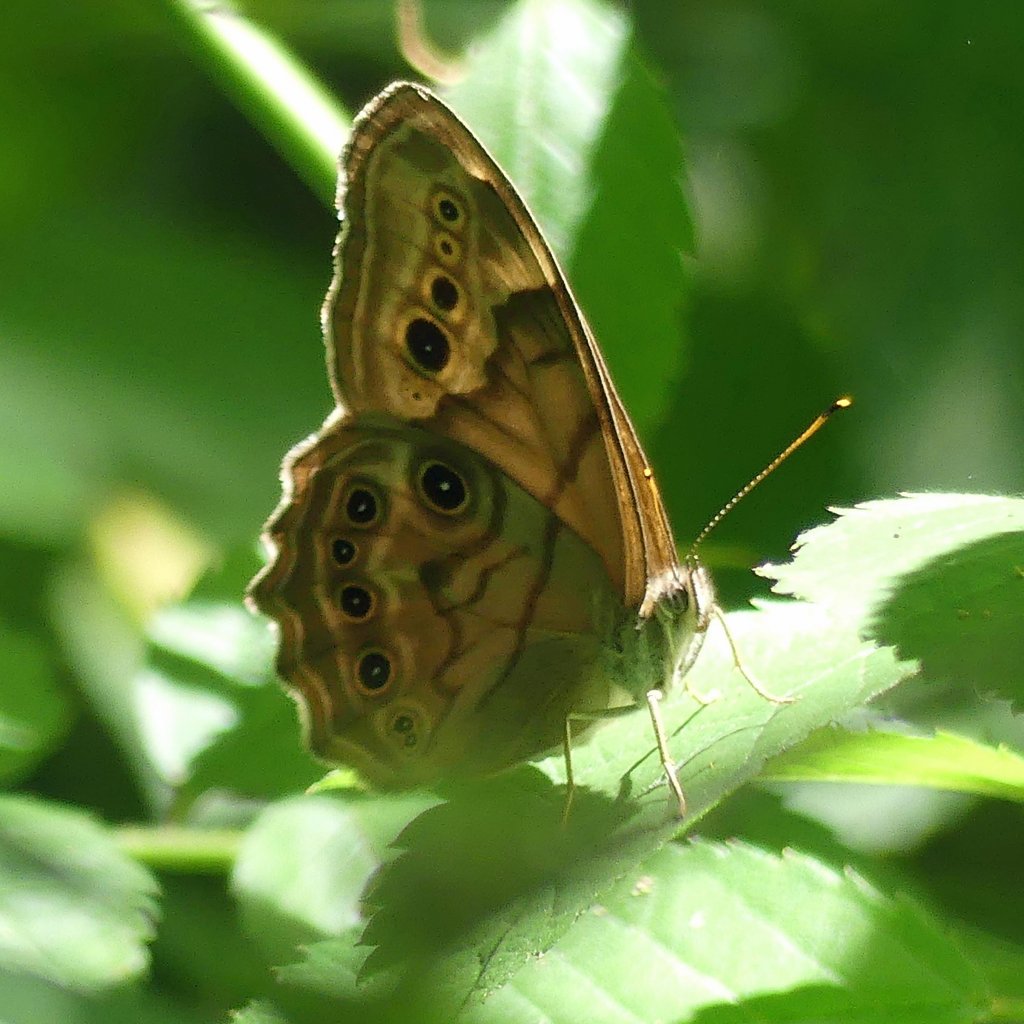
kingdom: Animalia
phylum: Arthropoda
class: Insecta
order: Lepidoptera
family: Nymphalidae
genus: Lethe
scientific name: Lethe anthedon
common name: Northern Pearly-Eye
